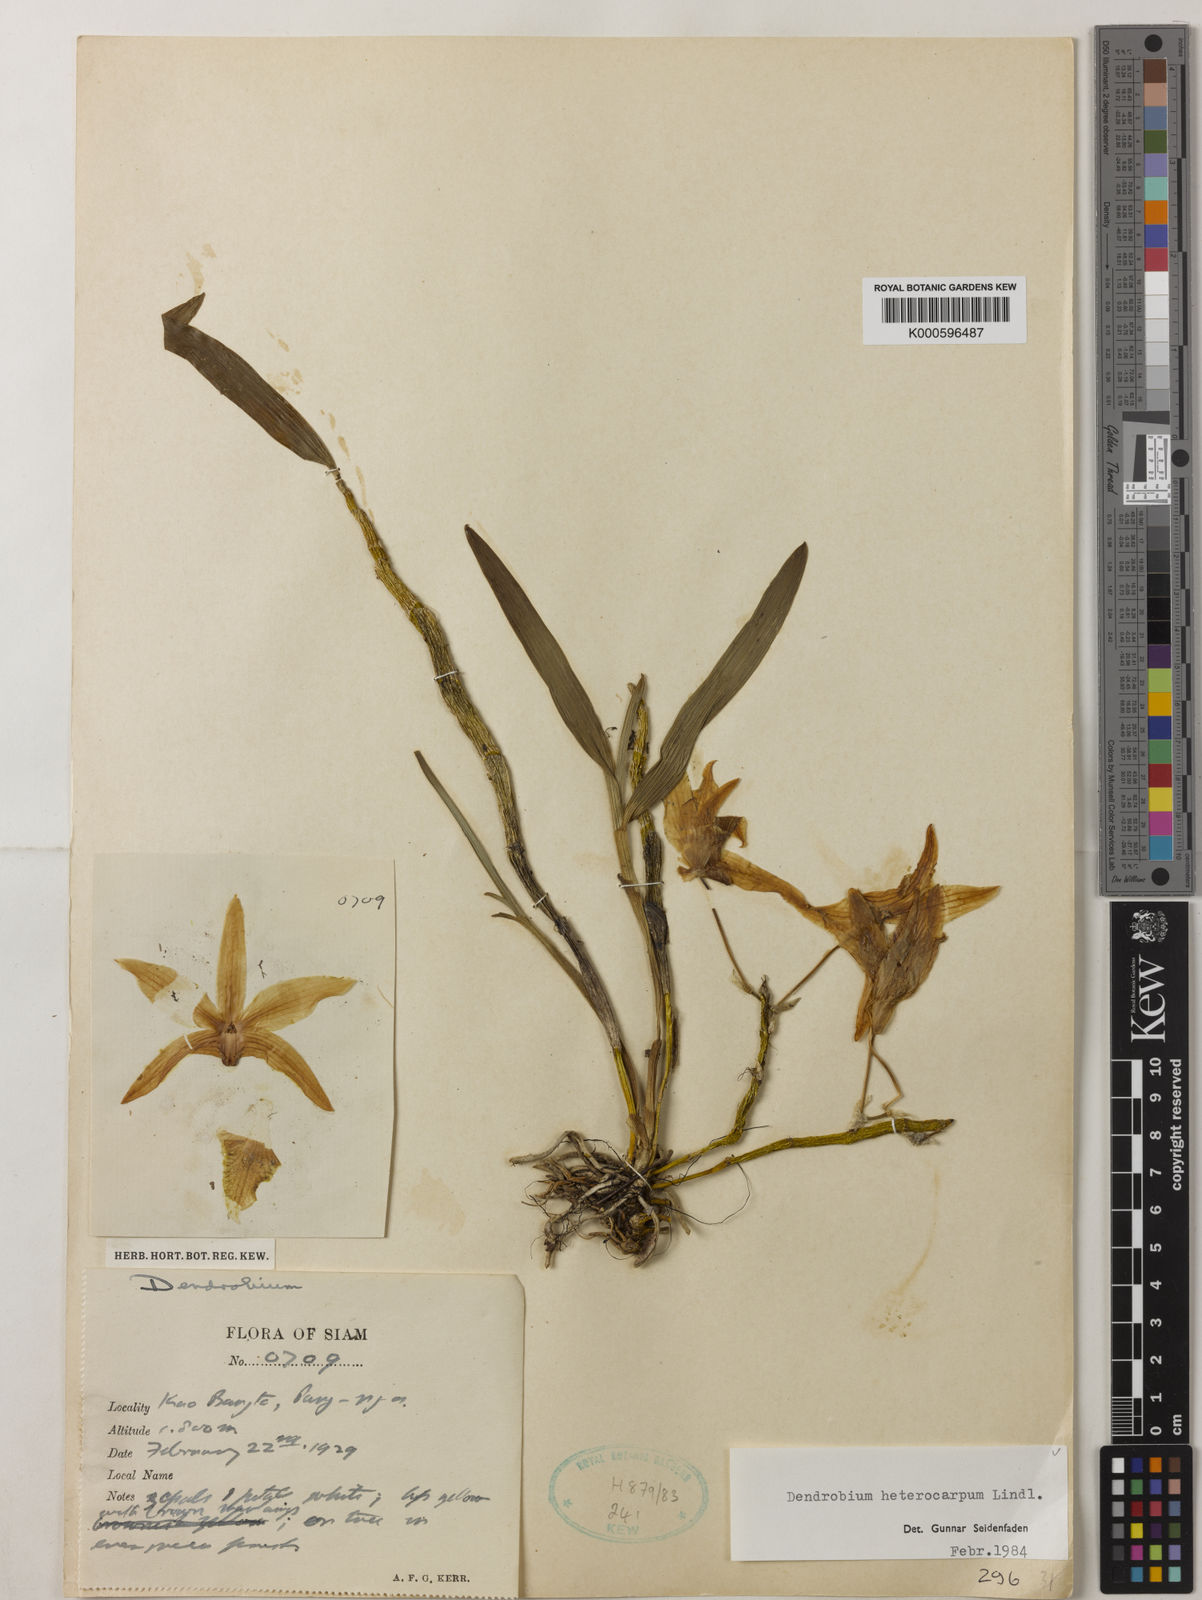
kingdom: Plantae
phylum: Tracheophyta
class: Liliopsida
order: Asparagales
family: Orchidaceae
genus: Dendrobium
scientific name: Dendrobium heterocarpum
